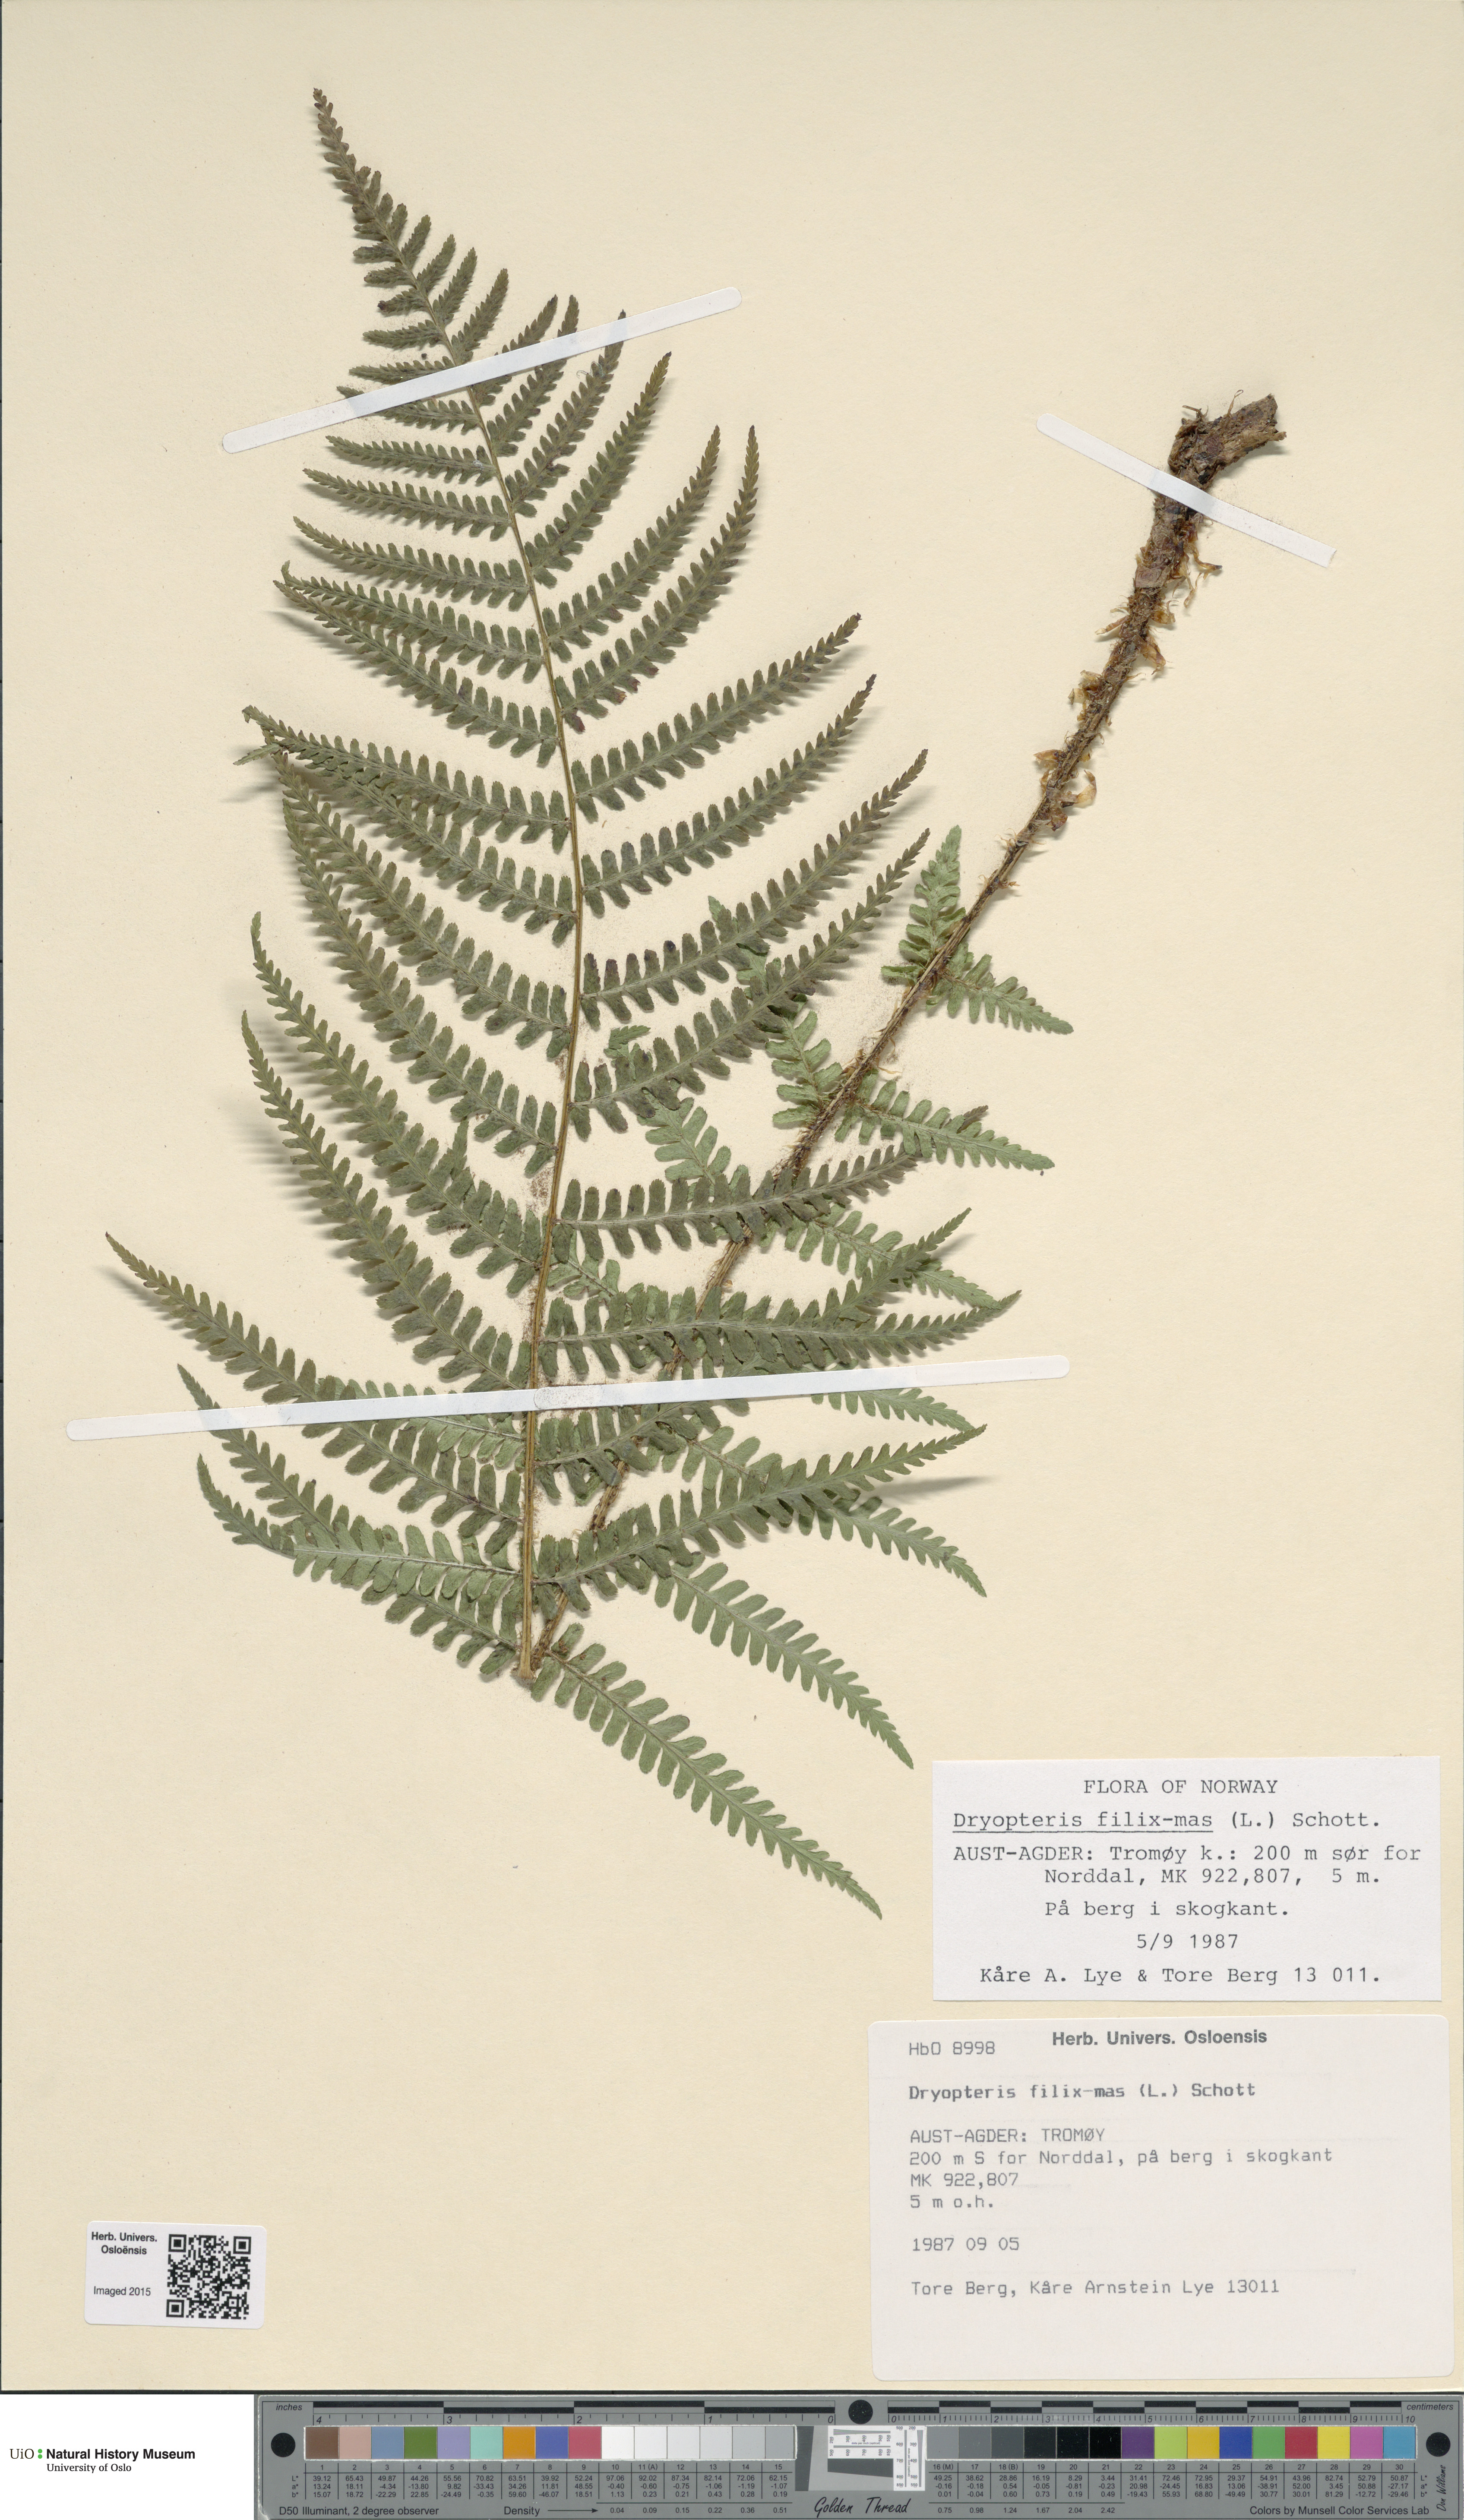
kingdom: Plantae
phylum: Tracheophyta
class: Polypodiopsida
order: Polypodiales
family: Dryopteridaceae
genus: Dryopteris
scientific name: Dryopteris filix-mas
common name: Male fern
